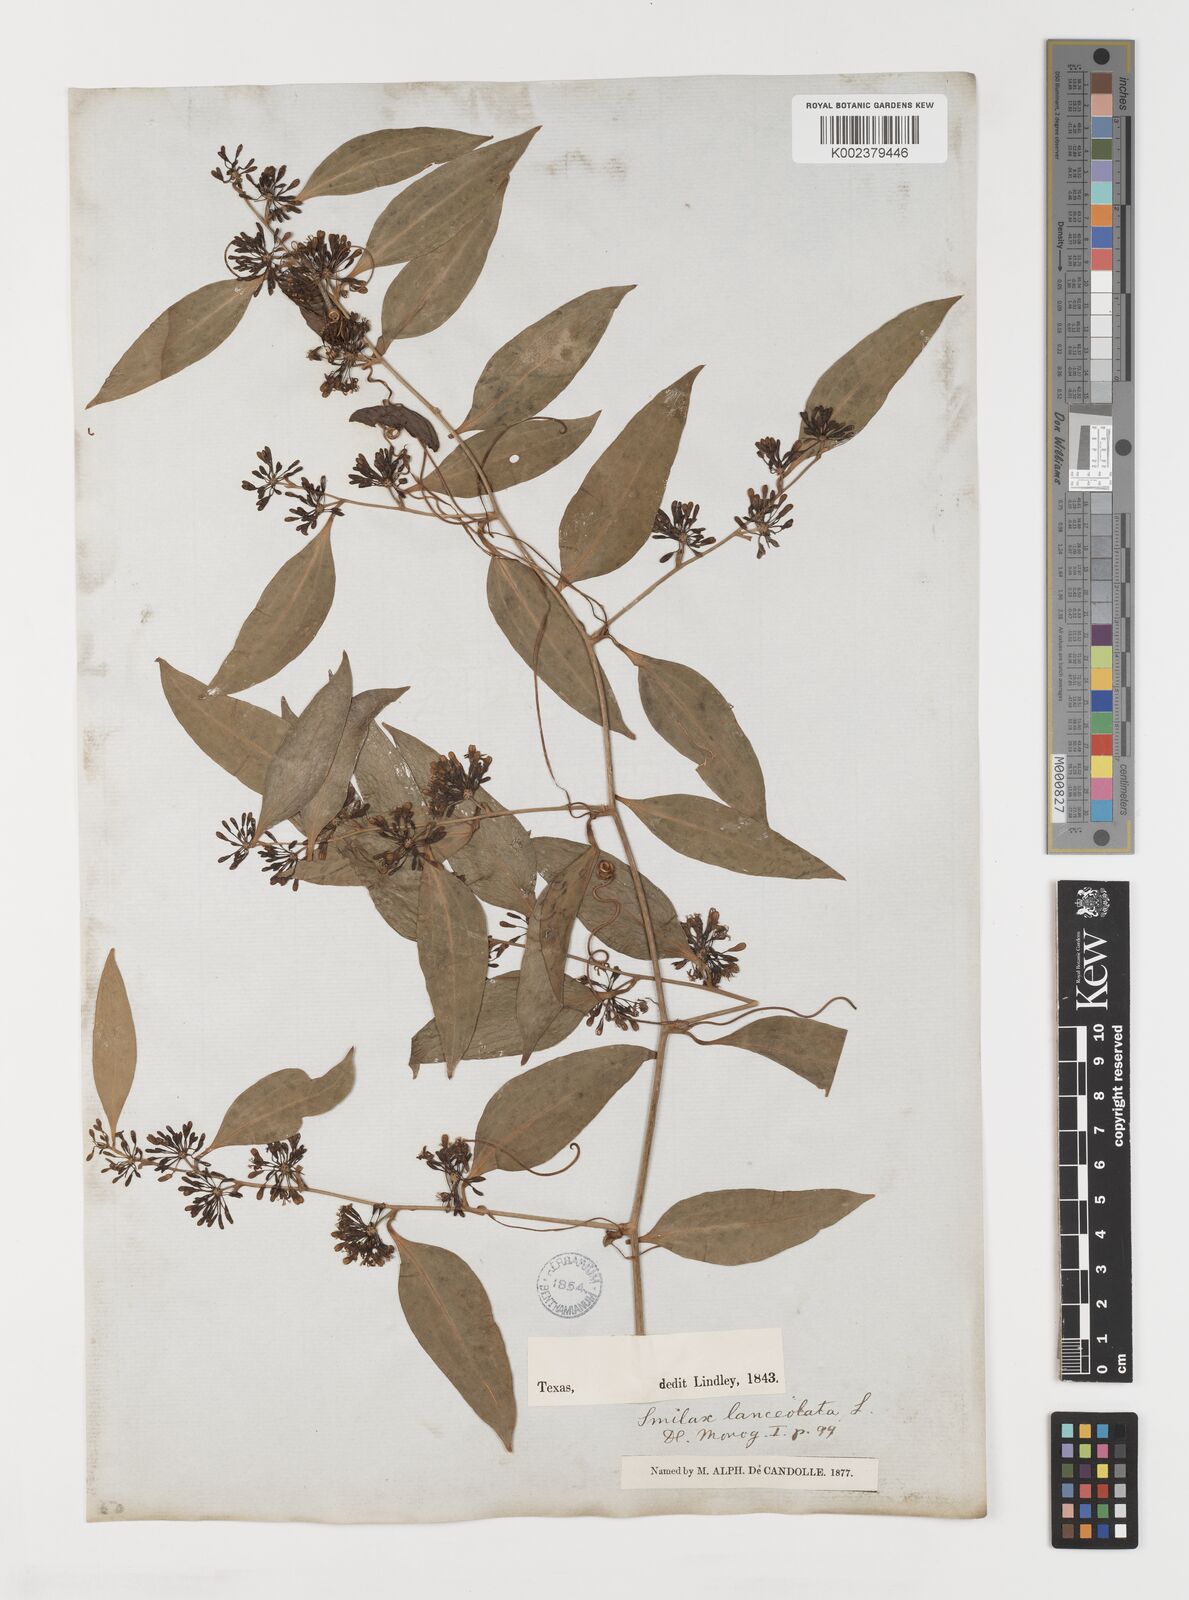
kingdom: Plantae
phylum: Tracheophyta
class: Liliopsida
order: Liliales
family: Smilacaceae
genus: Smilax
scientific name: Smilax laurifolia
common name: Bamboovine
